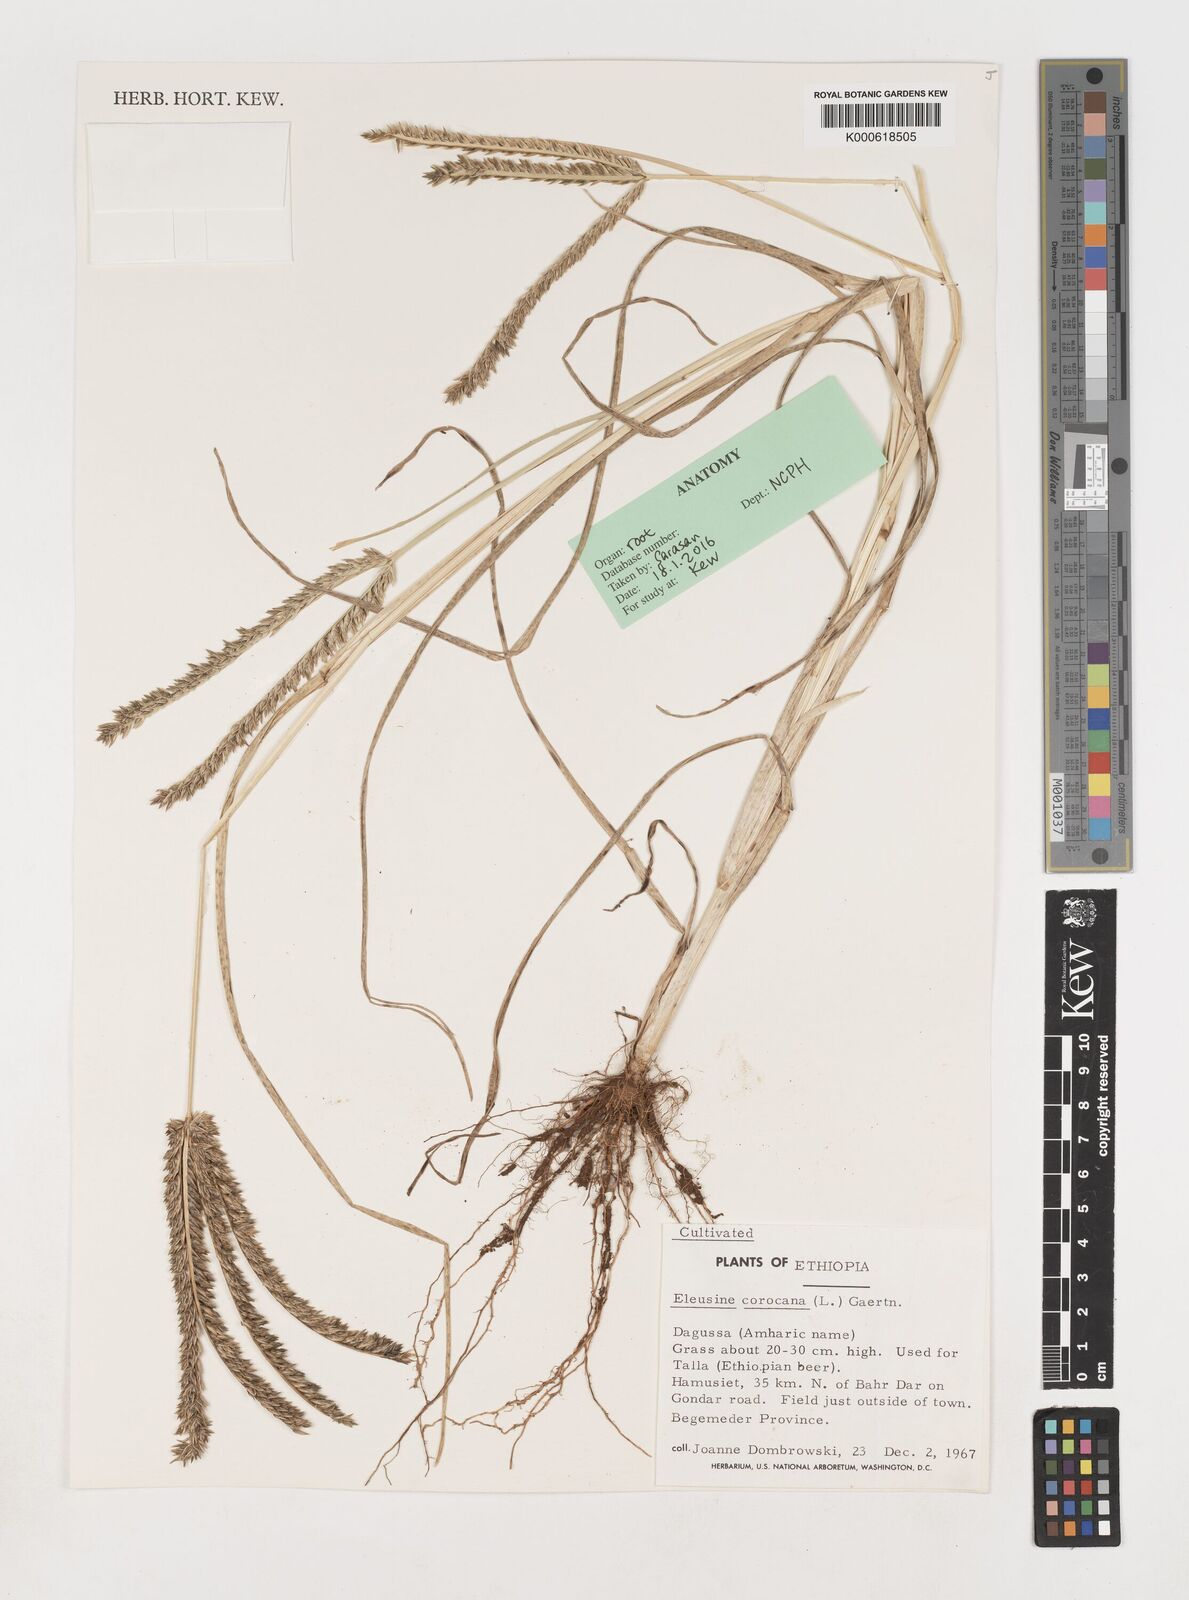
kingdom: Plantae
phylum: Tracheophyta
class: Liliopsida
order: Poales
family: Poaceae
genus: Eleusine
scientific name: Eleusine
